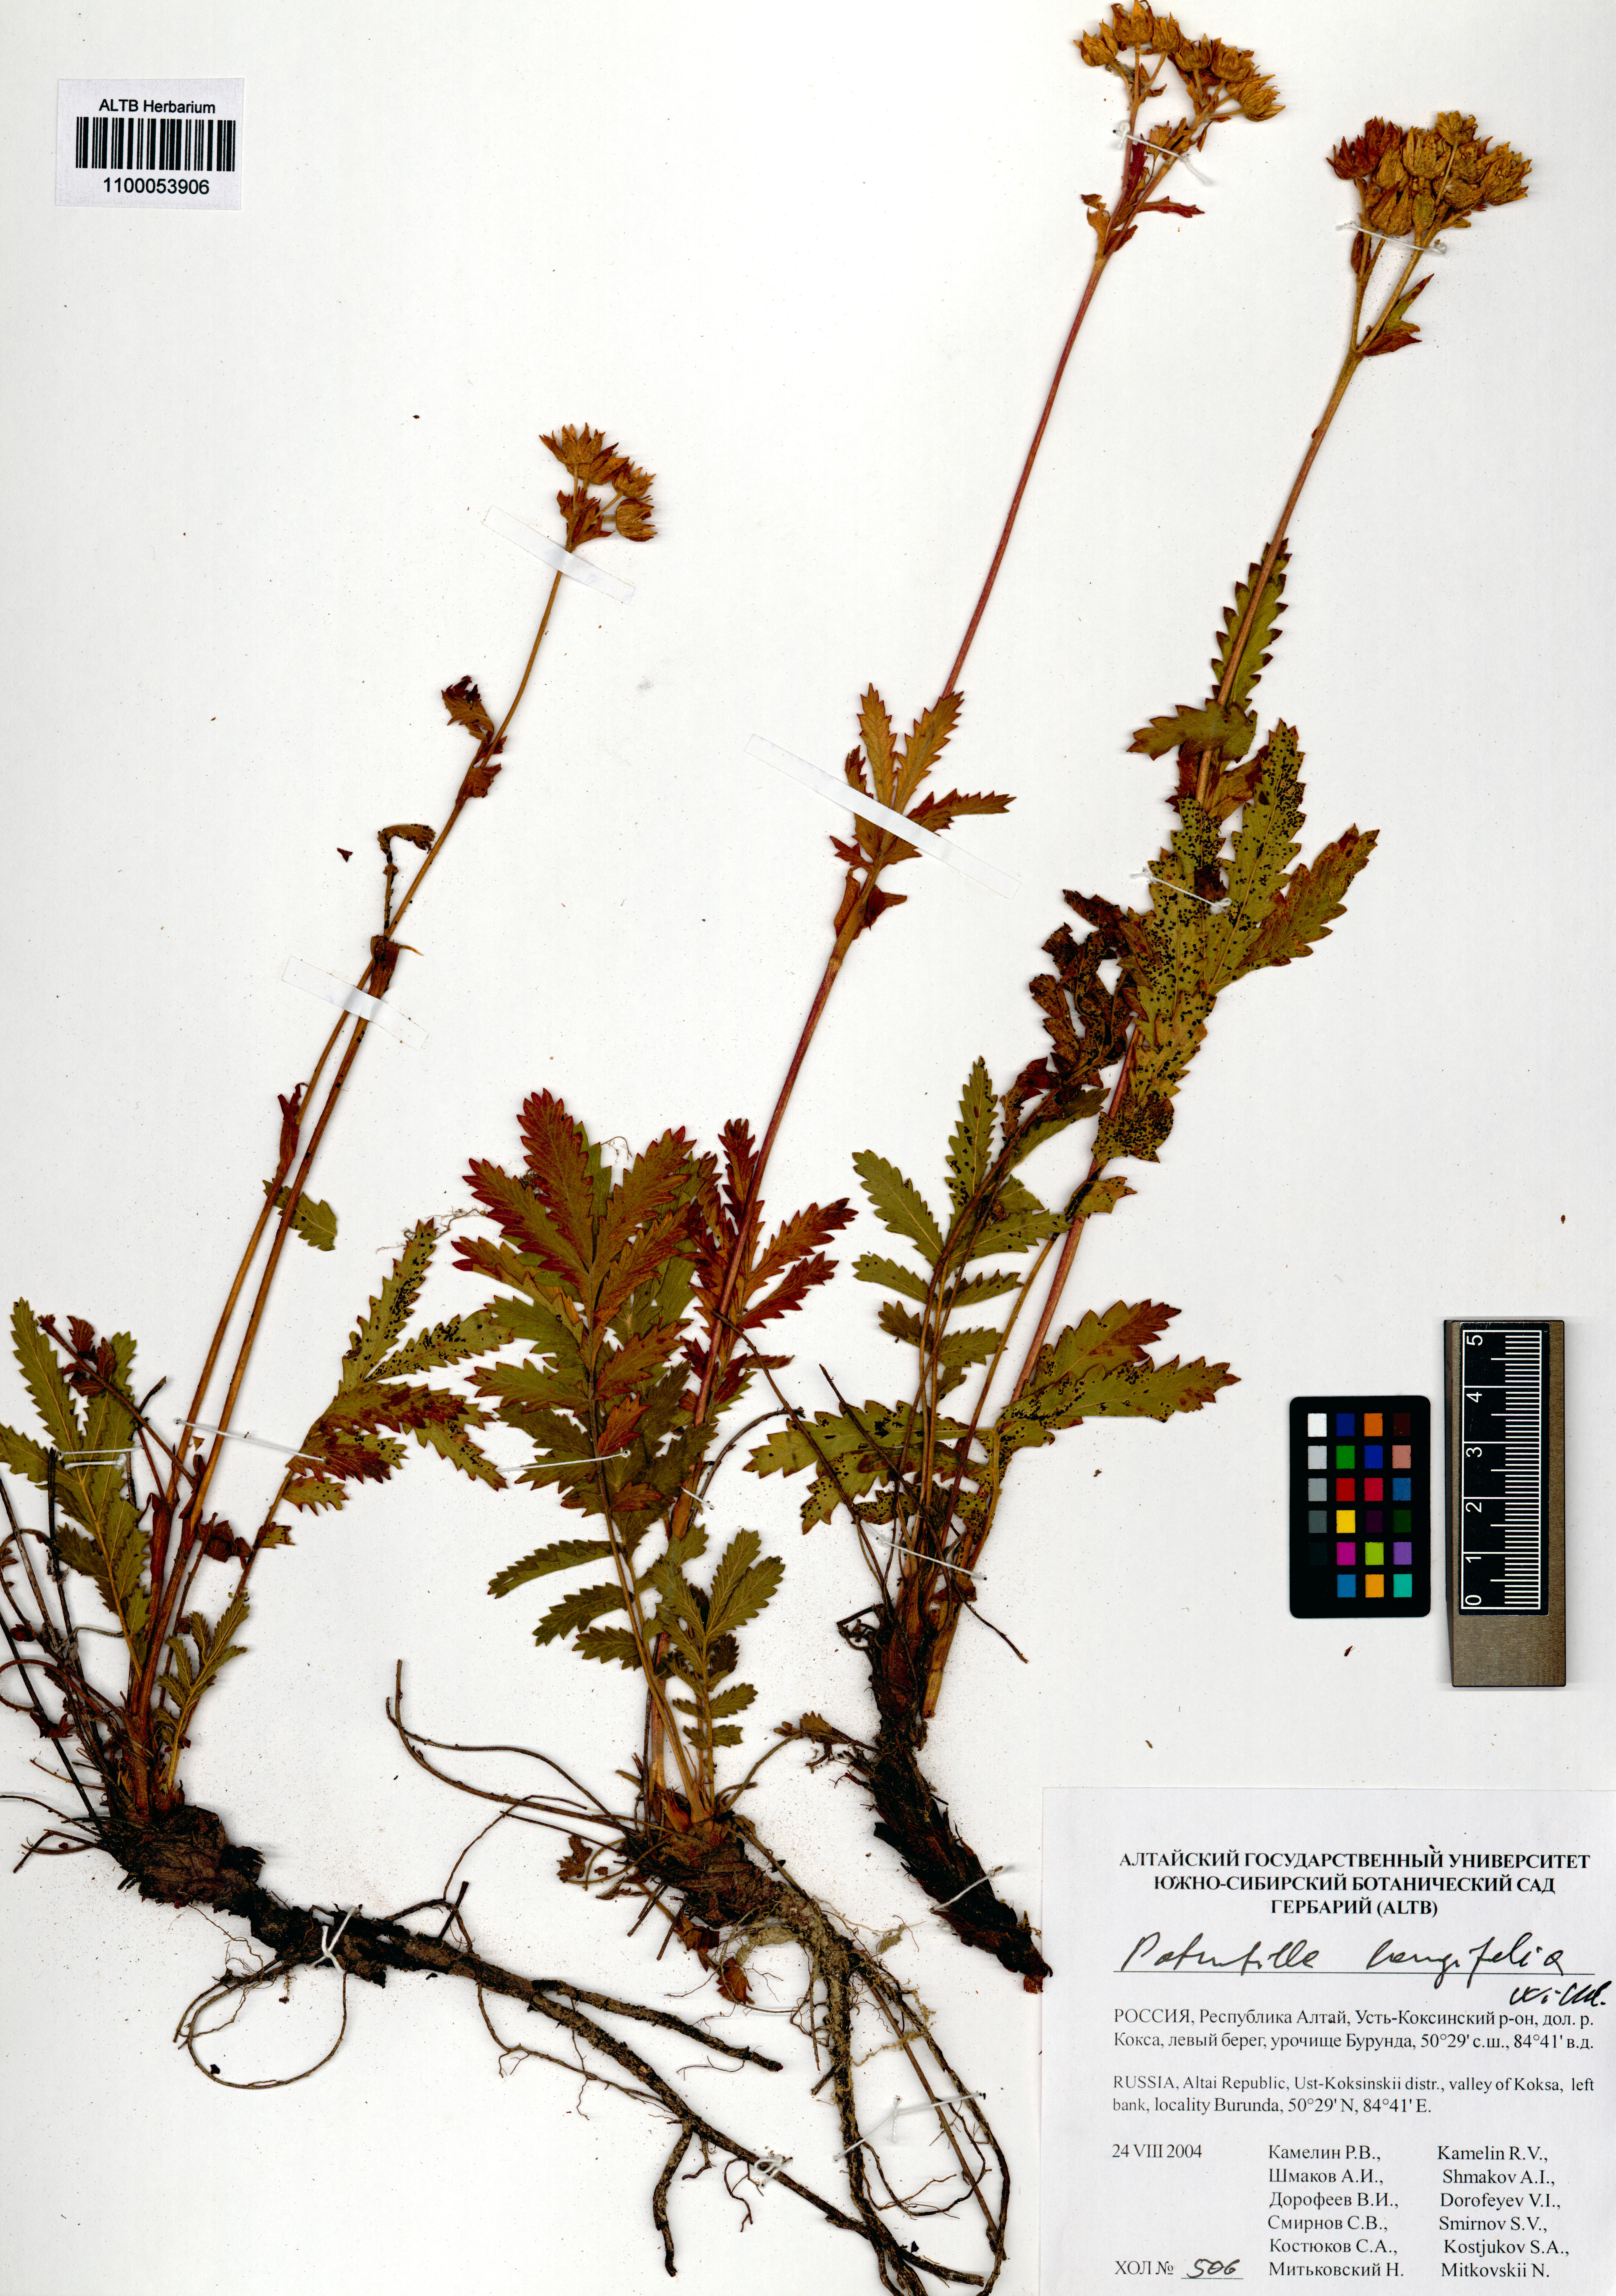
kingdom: Plantae
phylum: Tracheophyta
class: Magnoliopsida
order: Rosales
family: Rosaceae
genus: Potentilla
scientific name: Potentilla longifolia
